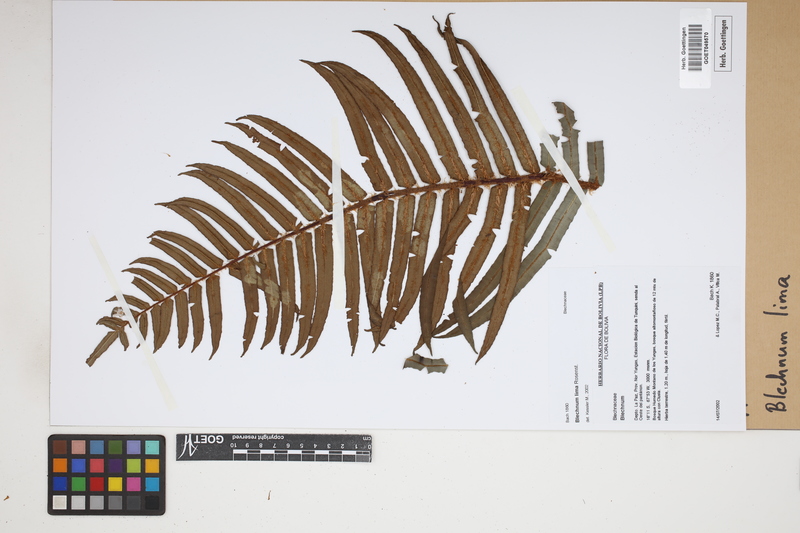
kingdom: Plantae
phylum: Tracheophyta
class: Polypodiopsida
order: Polypodiales
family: Blechnaceae
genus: Parablechnum
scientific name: Parablechnum lima
